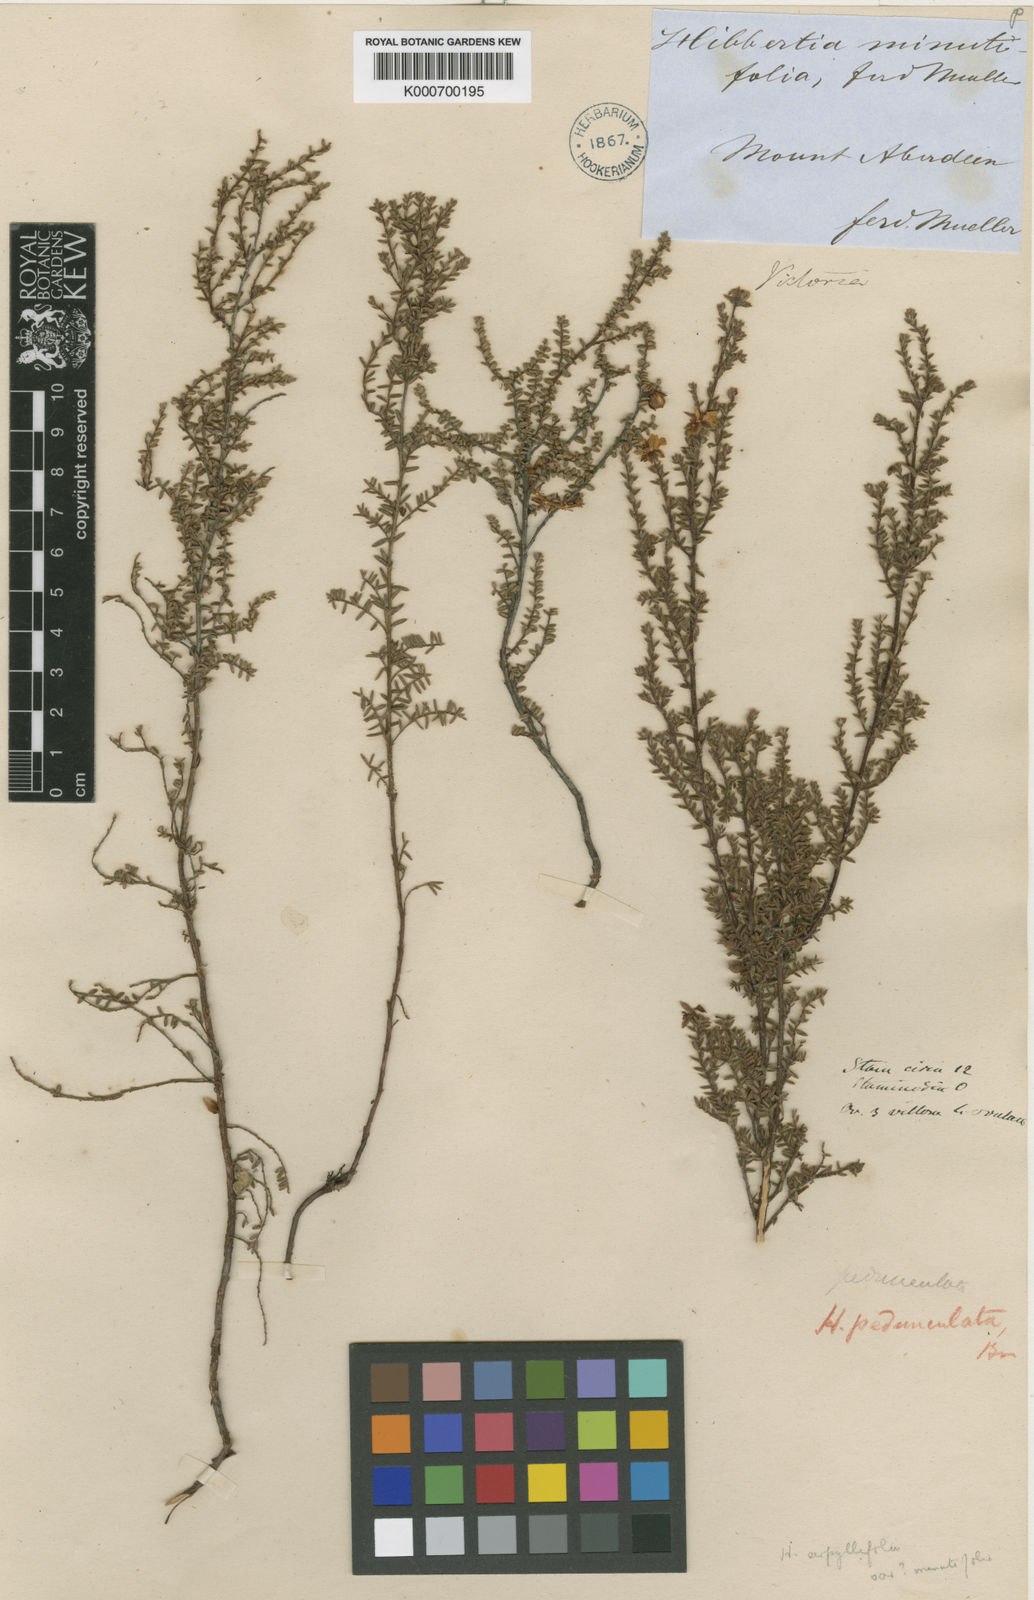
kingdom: Plantae
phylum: Tracheophyta
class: Magnoliopsida
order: Dilleniales
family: Dilleniaceae
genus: Hibbertia
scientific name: Hibbertia serpyllifolia
